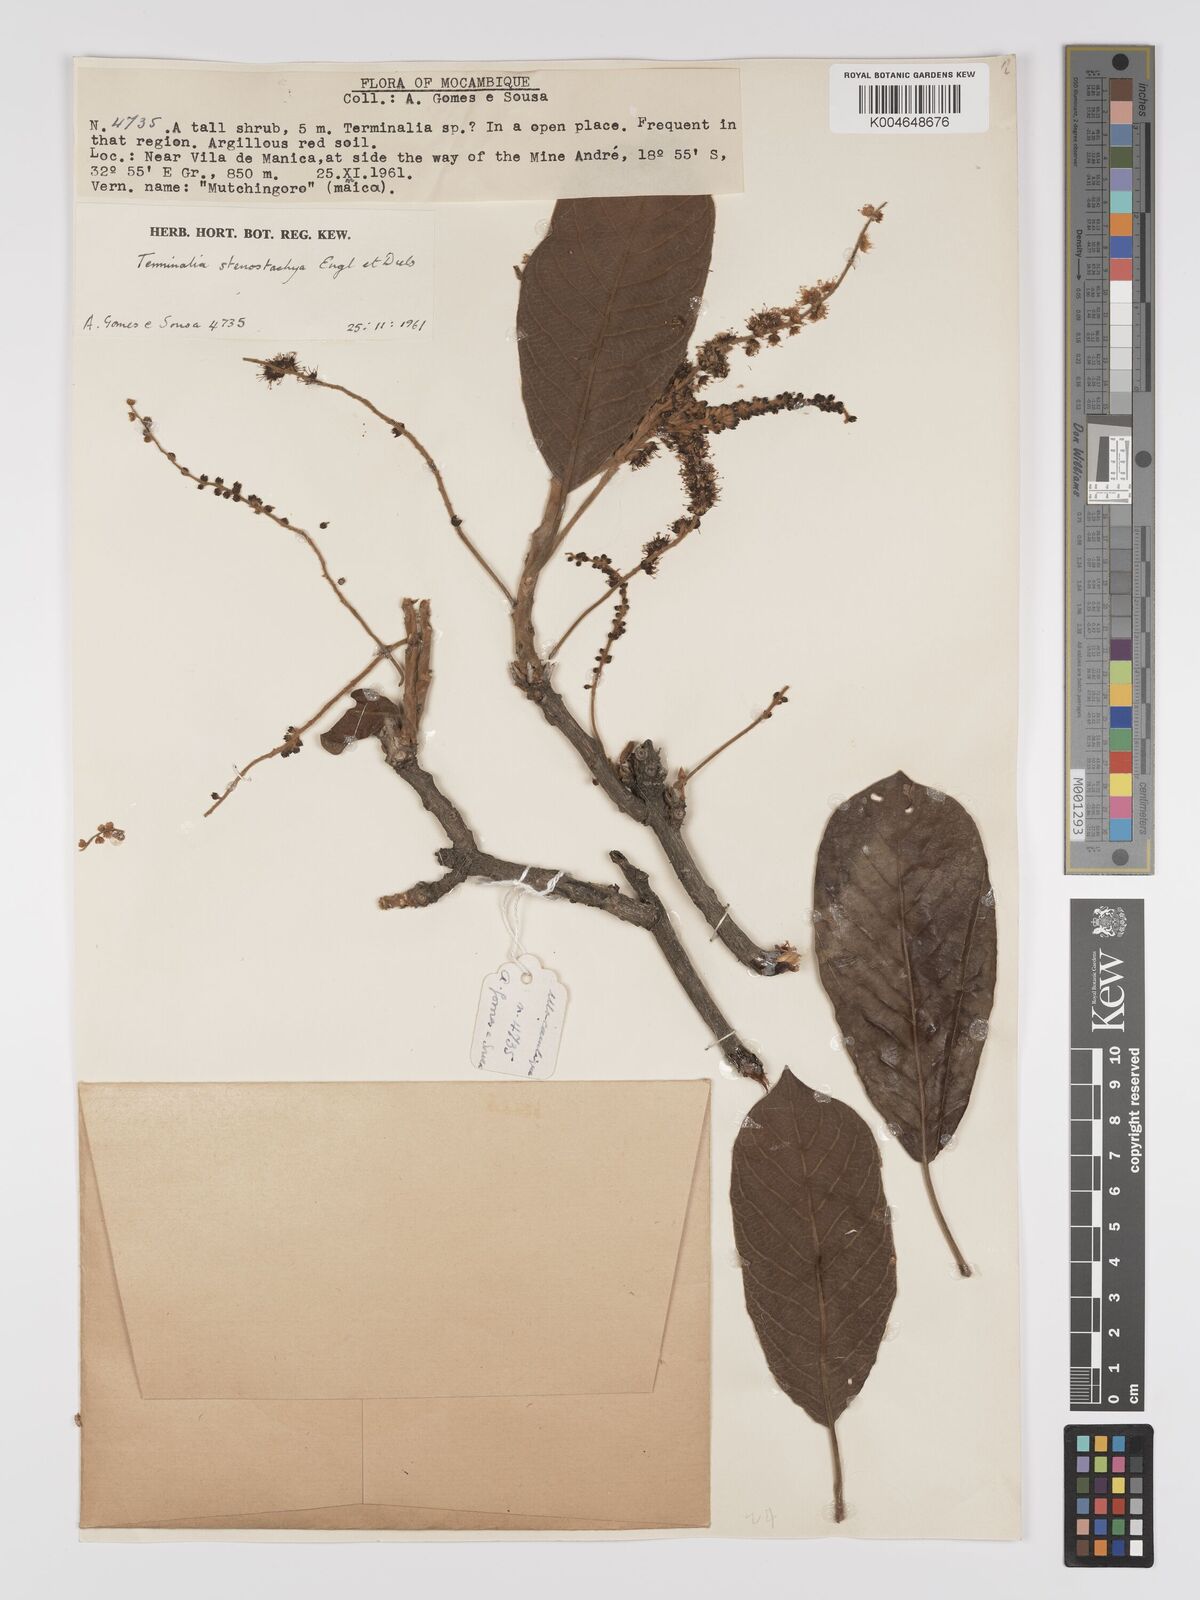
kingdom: Plantae
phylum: Tracheophyta
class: Magnoliopsida
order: Myrtales
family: Combretaceae
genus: Terminalia
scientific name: Terminalia stenostachya
